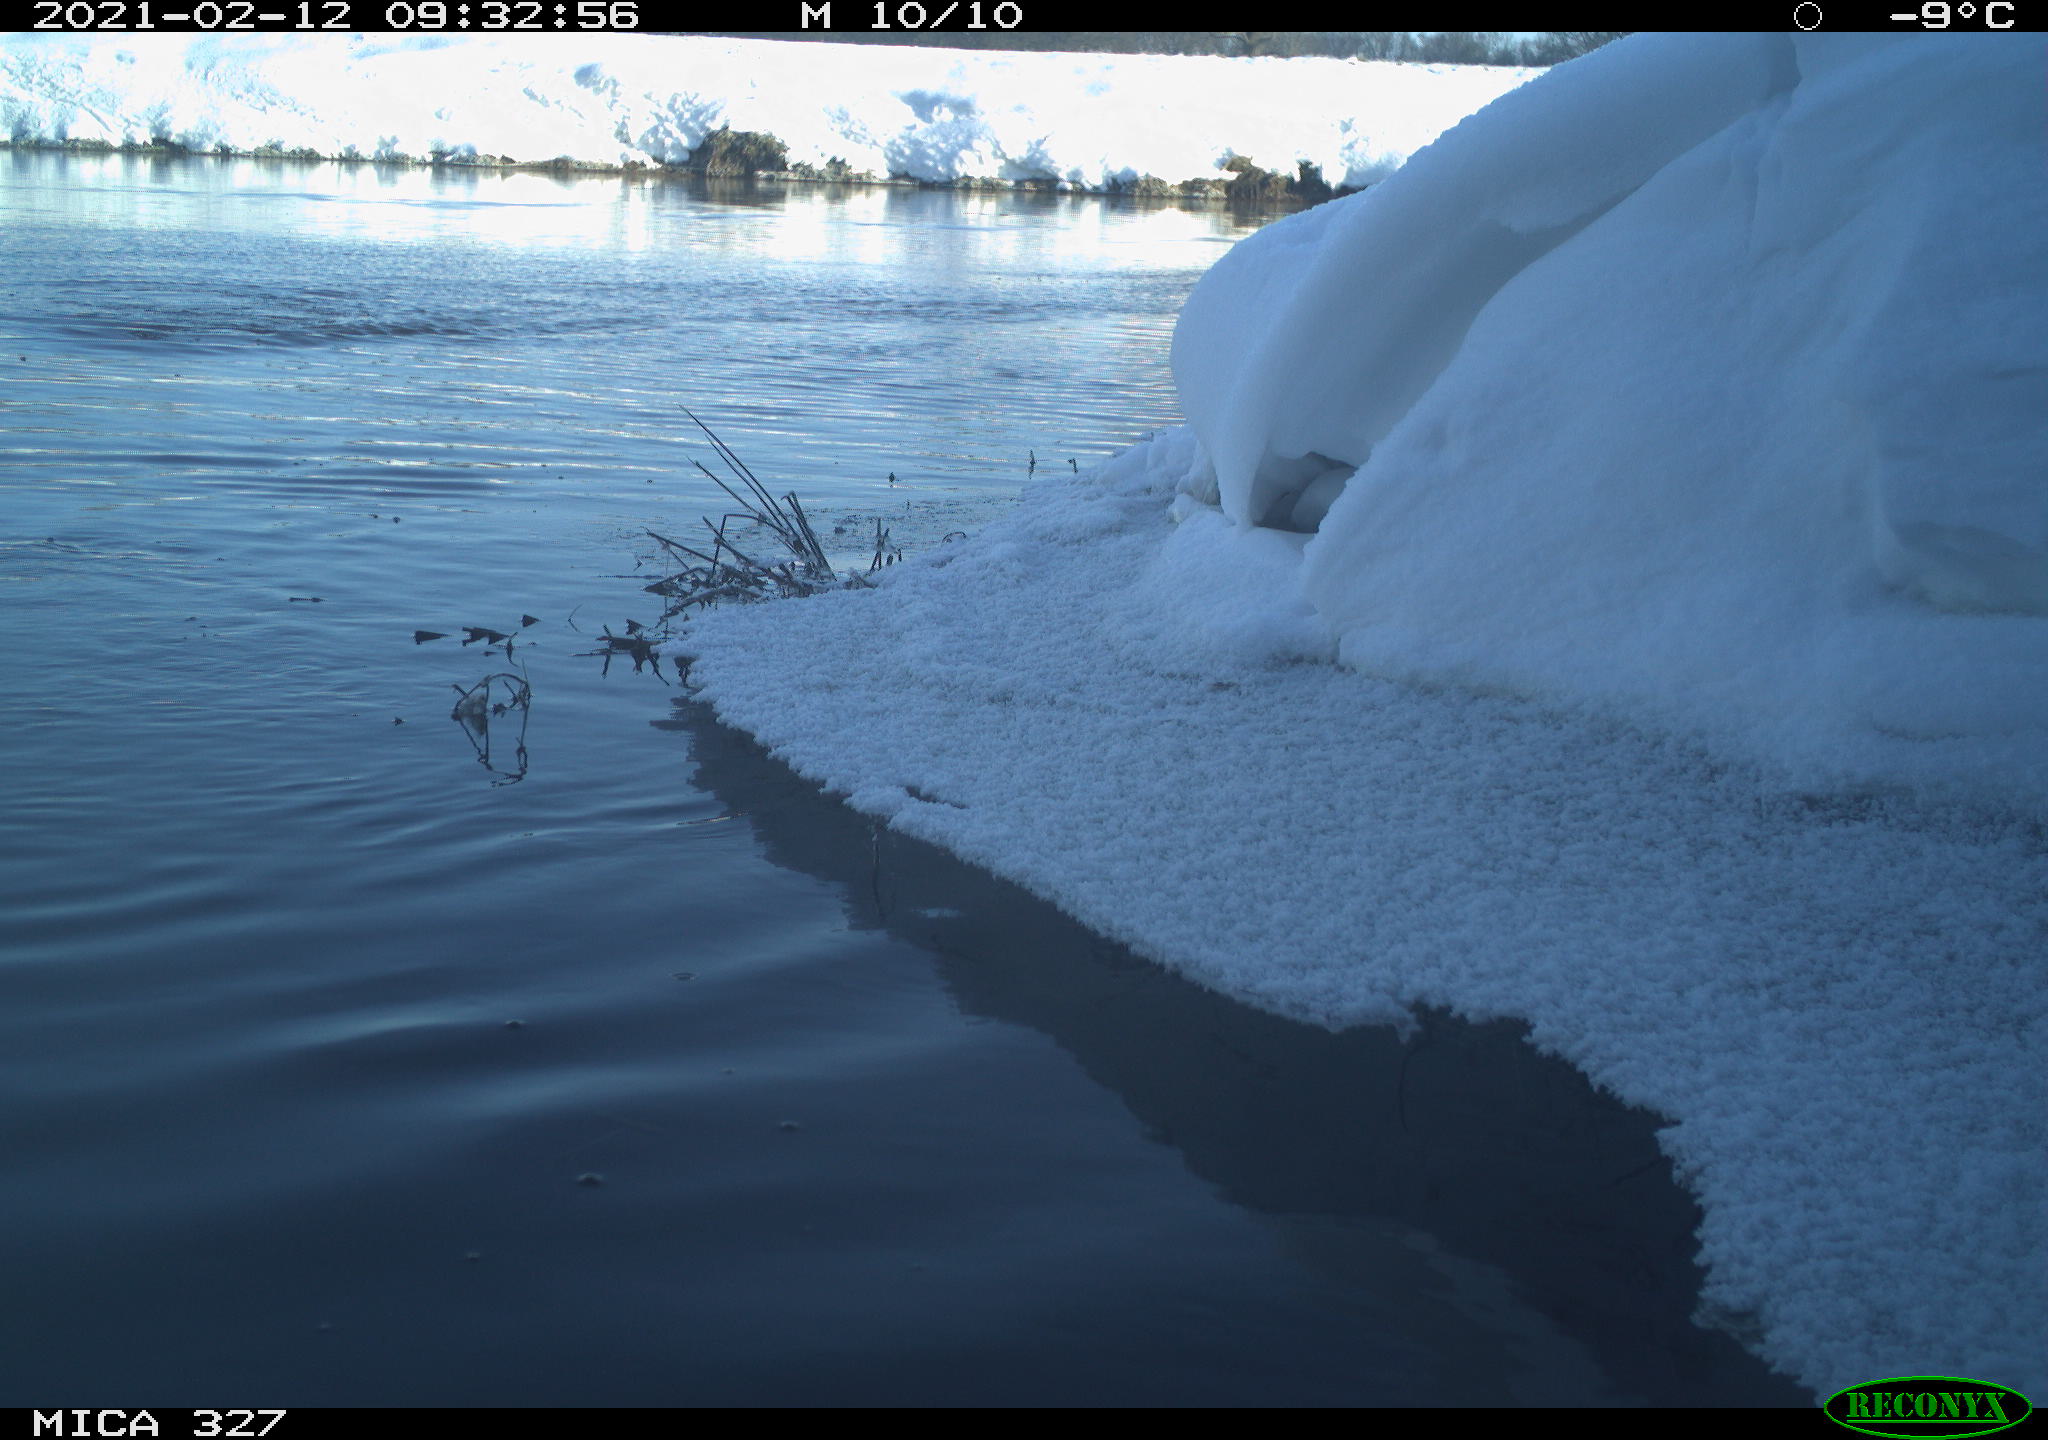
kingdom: Animalia
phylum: Chordata
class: Aves
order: Suliformes
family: Phalacrocoracidae
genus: Phalacrocorax
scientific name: Phalacrocorax carbo
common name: Great cormorant
